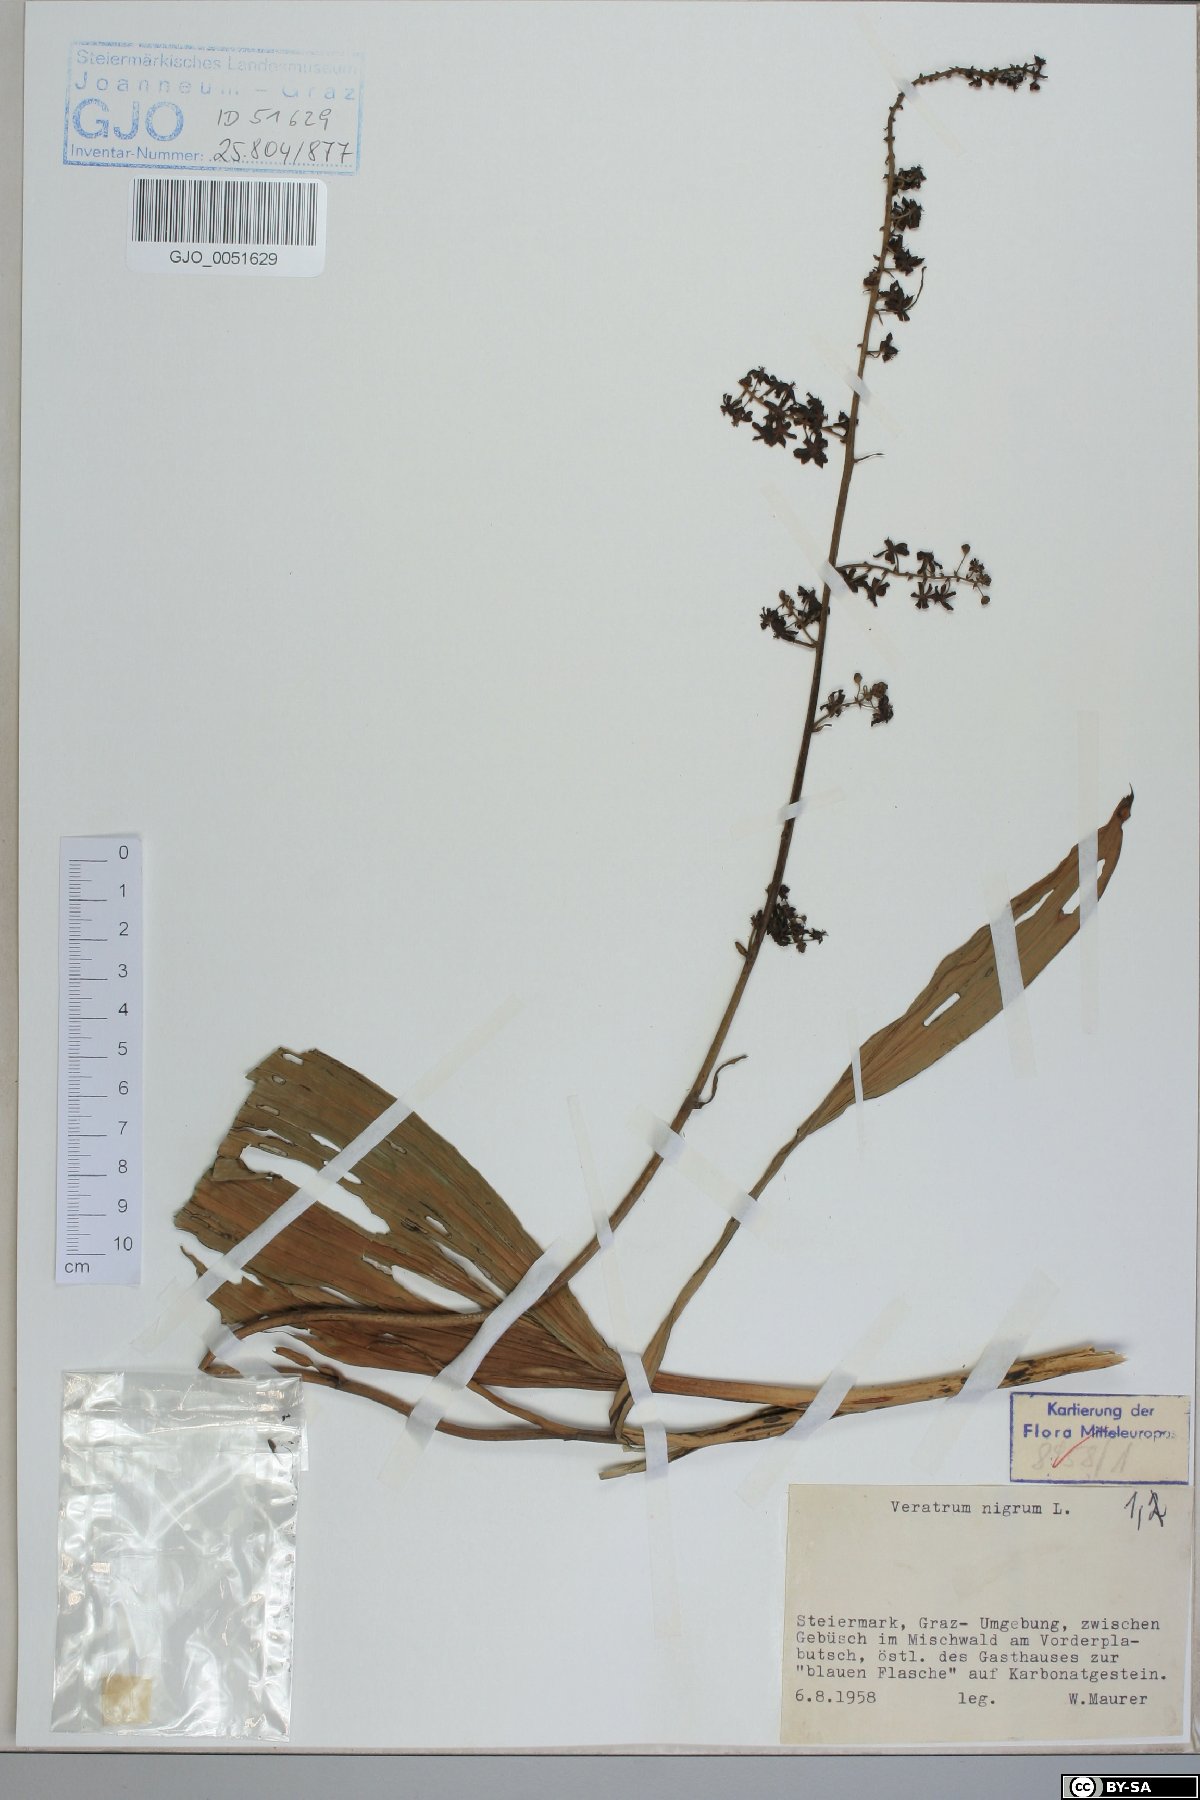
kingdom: Plantae
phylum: Tracheophyta
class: Liliopsida
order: Liliales
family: Melanthiaceae
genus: Veratrum
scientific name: Veratrum nigrum
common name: Black veratrum
